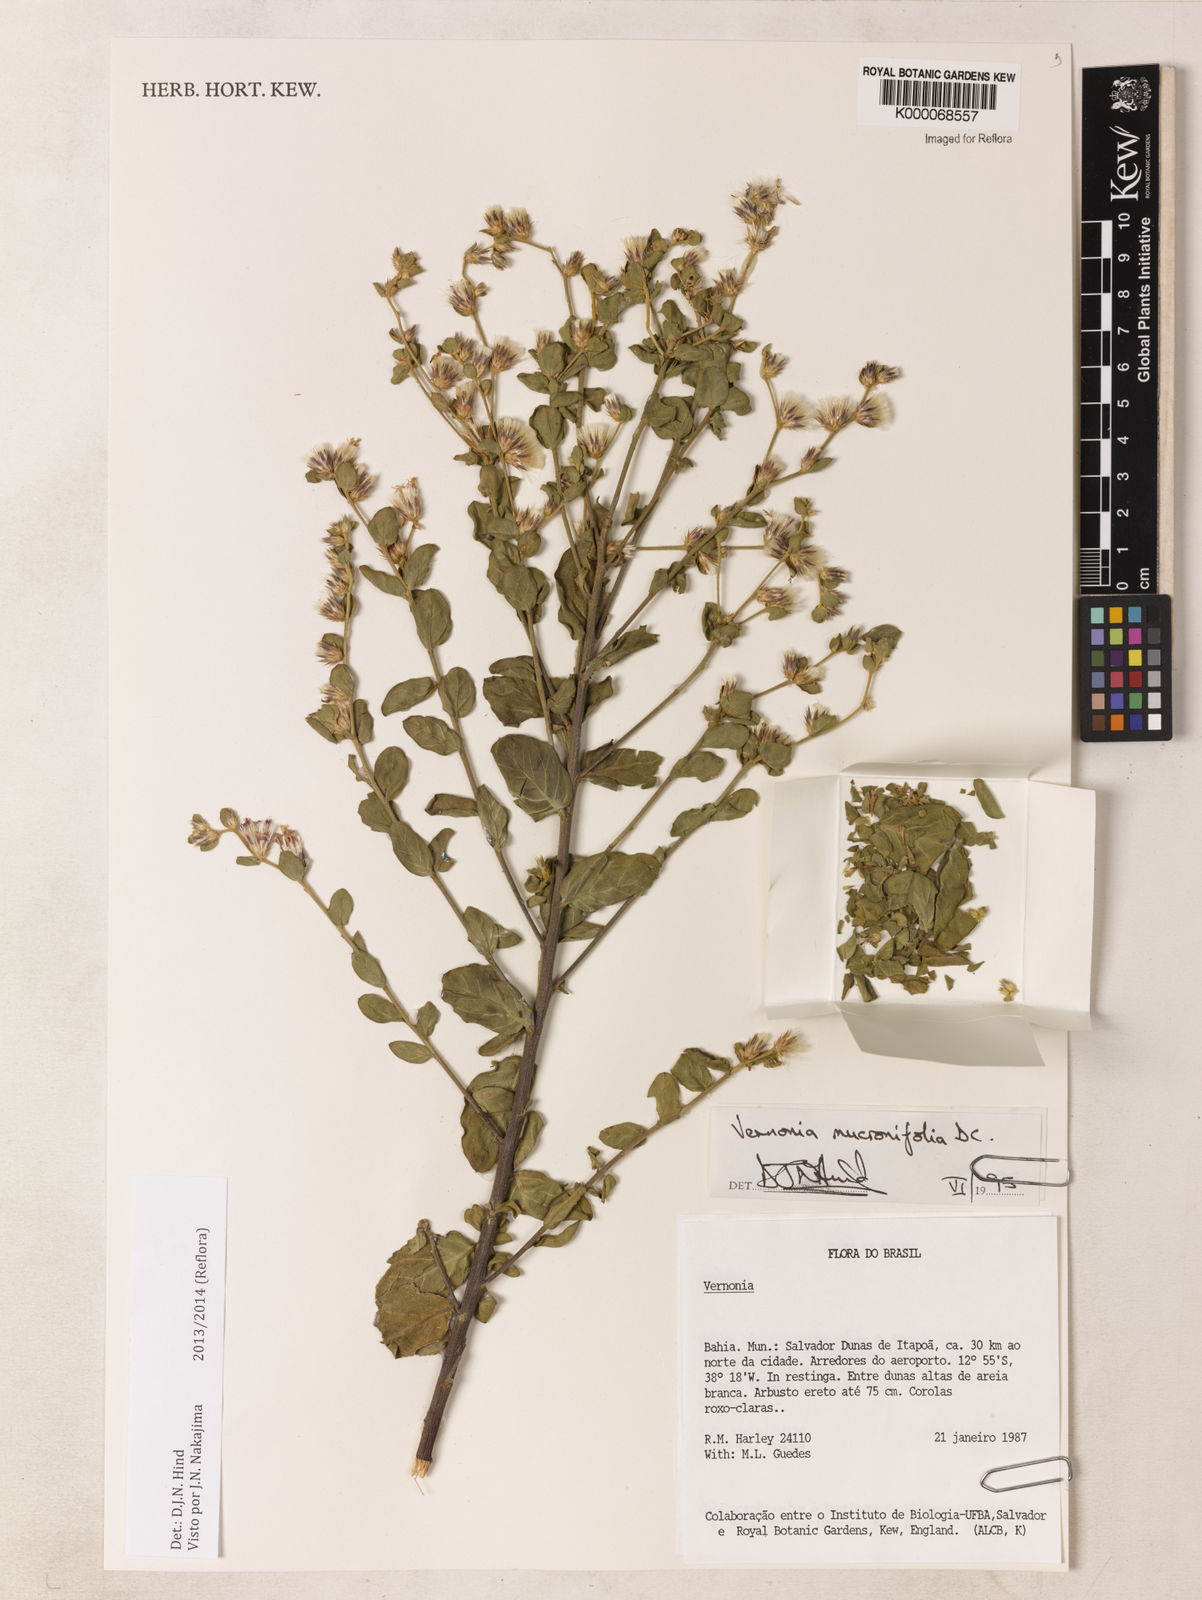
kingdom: Plantae
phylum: Tracheophyta
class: Magnoliopsida
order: Asterales
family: Asteraceae
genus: Lepidaploa
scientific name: Lepidaploa mucronifolia
